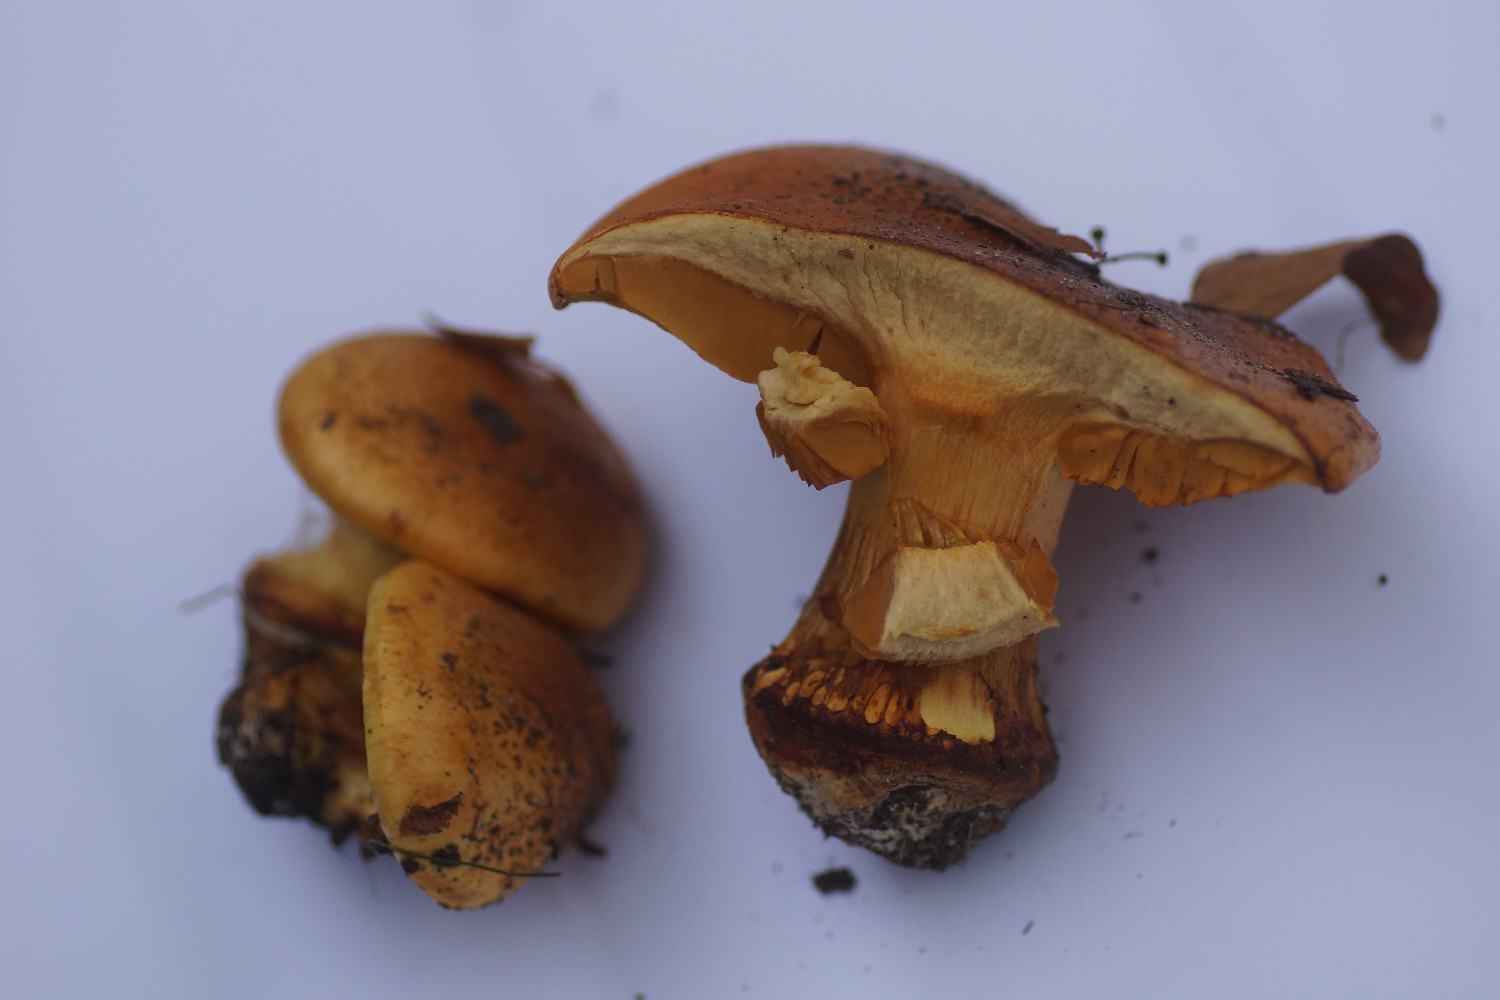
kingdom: Fungi
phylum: Basidiomycota
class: Agaricomycetes
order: Agaricales
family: Cortinariaceae
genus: Calonarius
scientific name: Calonarius alcalinophilus
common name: gyldenbrun slørhat
